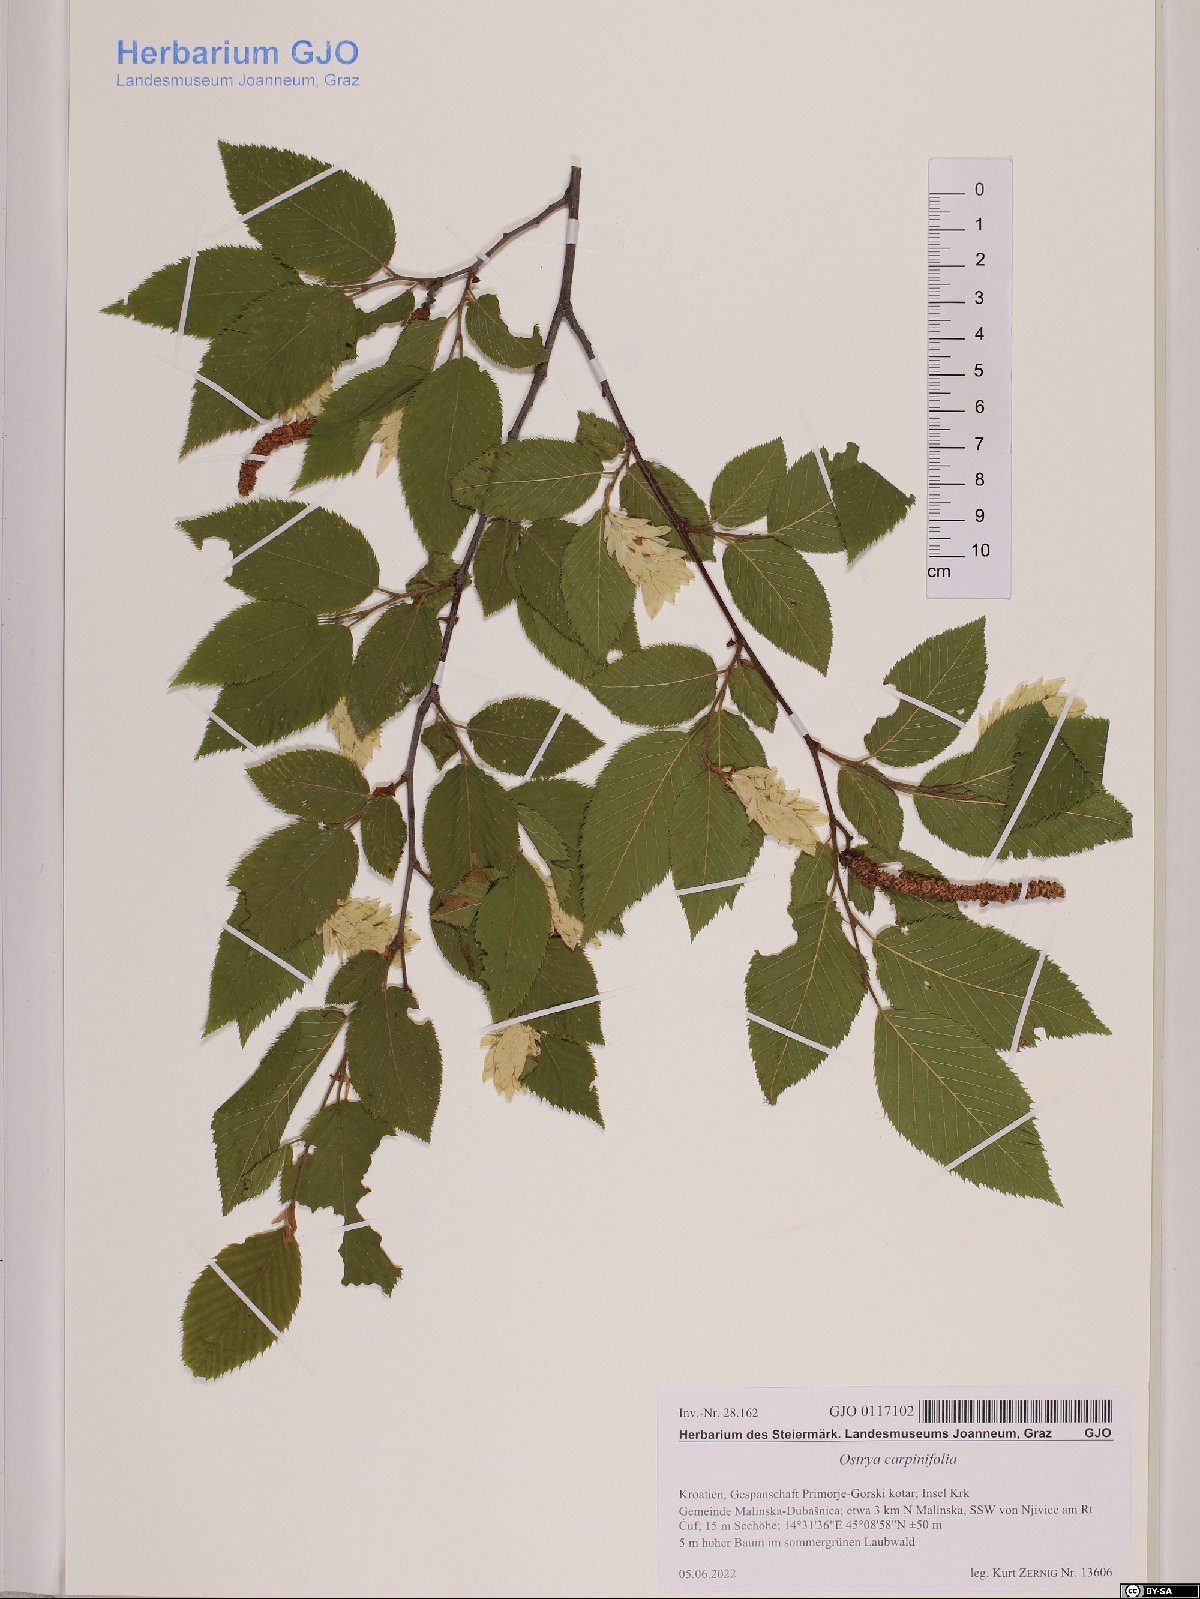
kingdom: Plantae
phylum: Tracheophyta
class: Magnoliopsida
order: Fagales
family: Betulaceae
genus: Ostrya
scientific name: Ostrya carpinifolia
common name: European hop-hornbeam
